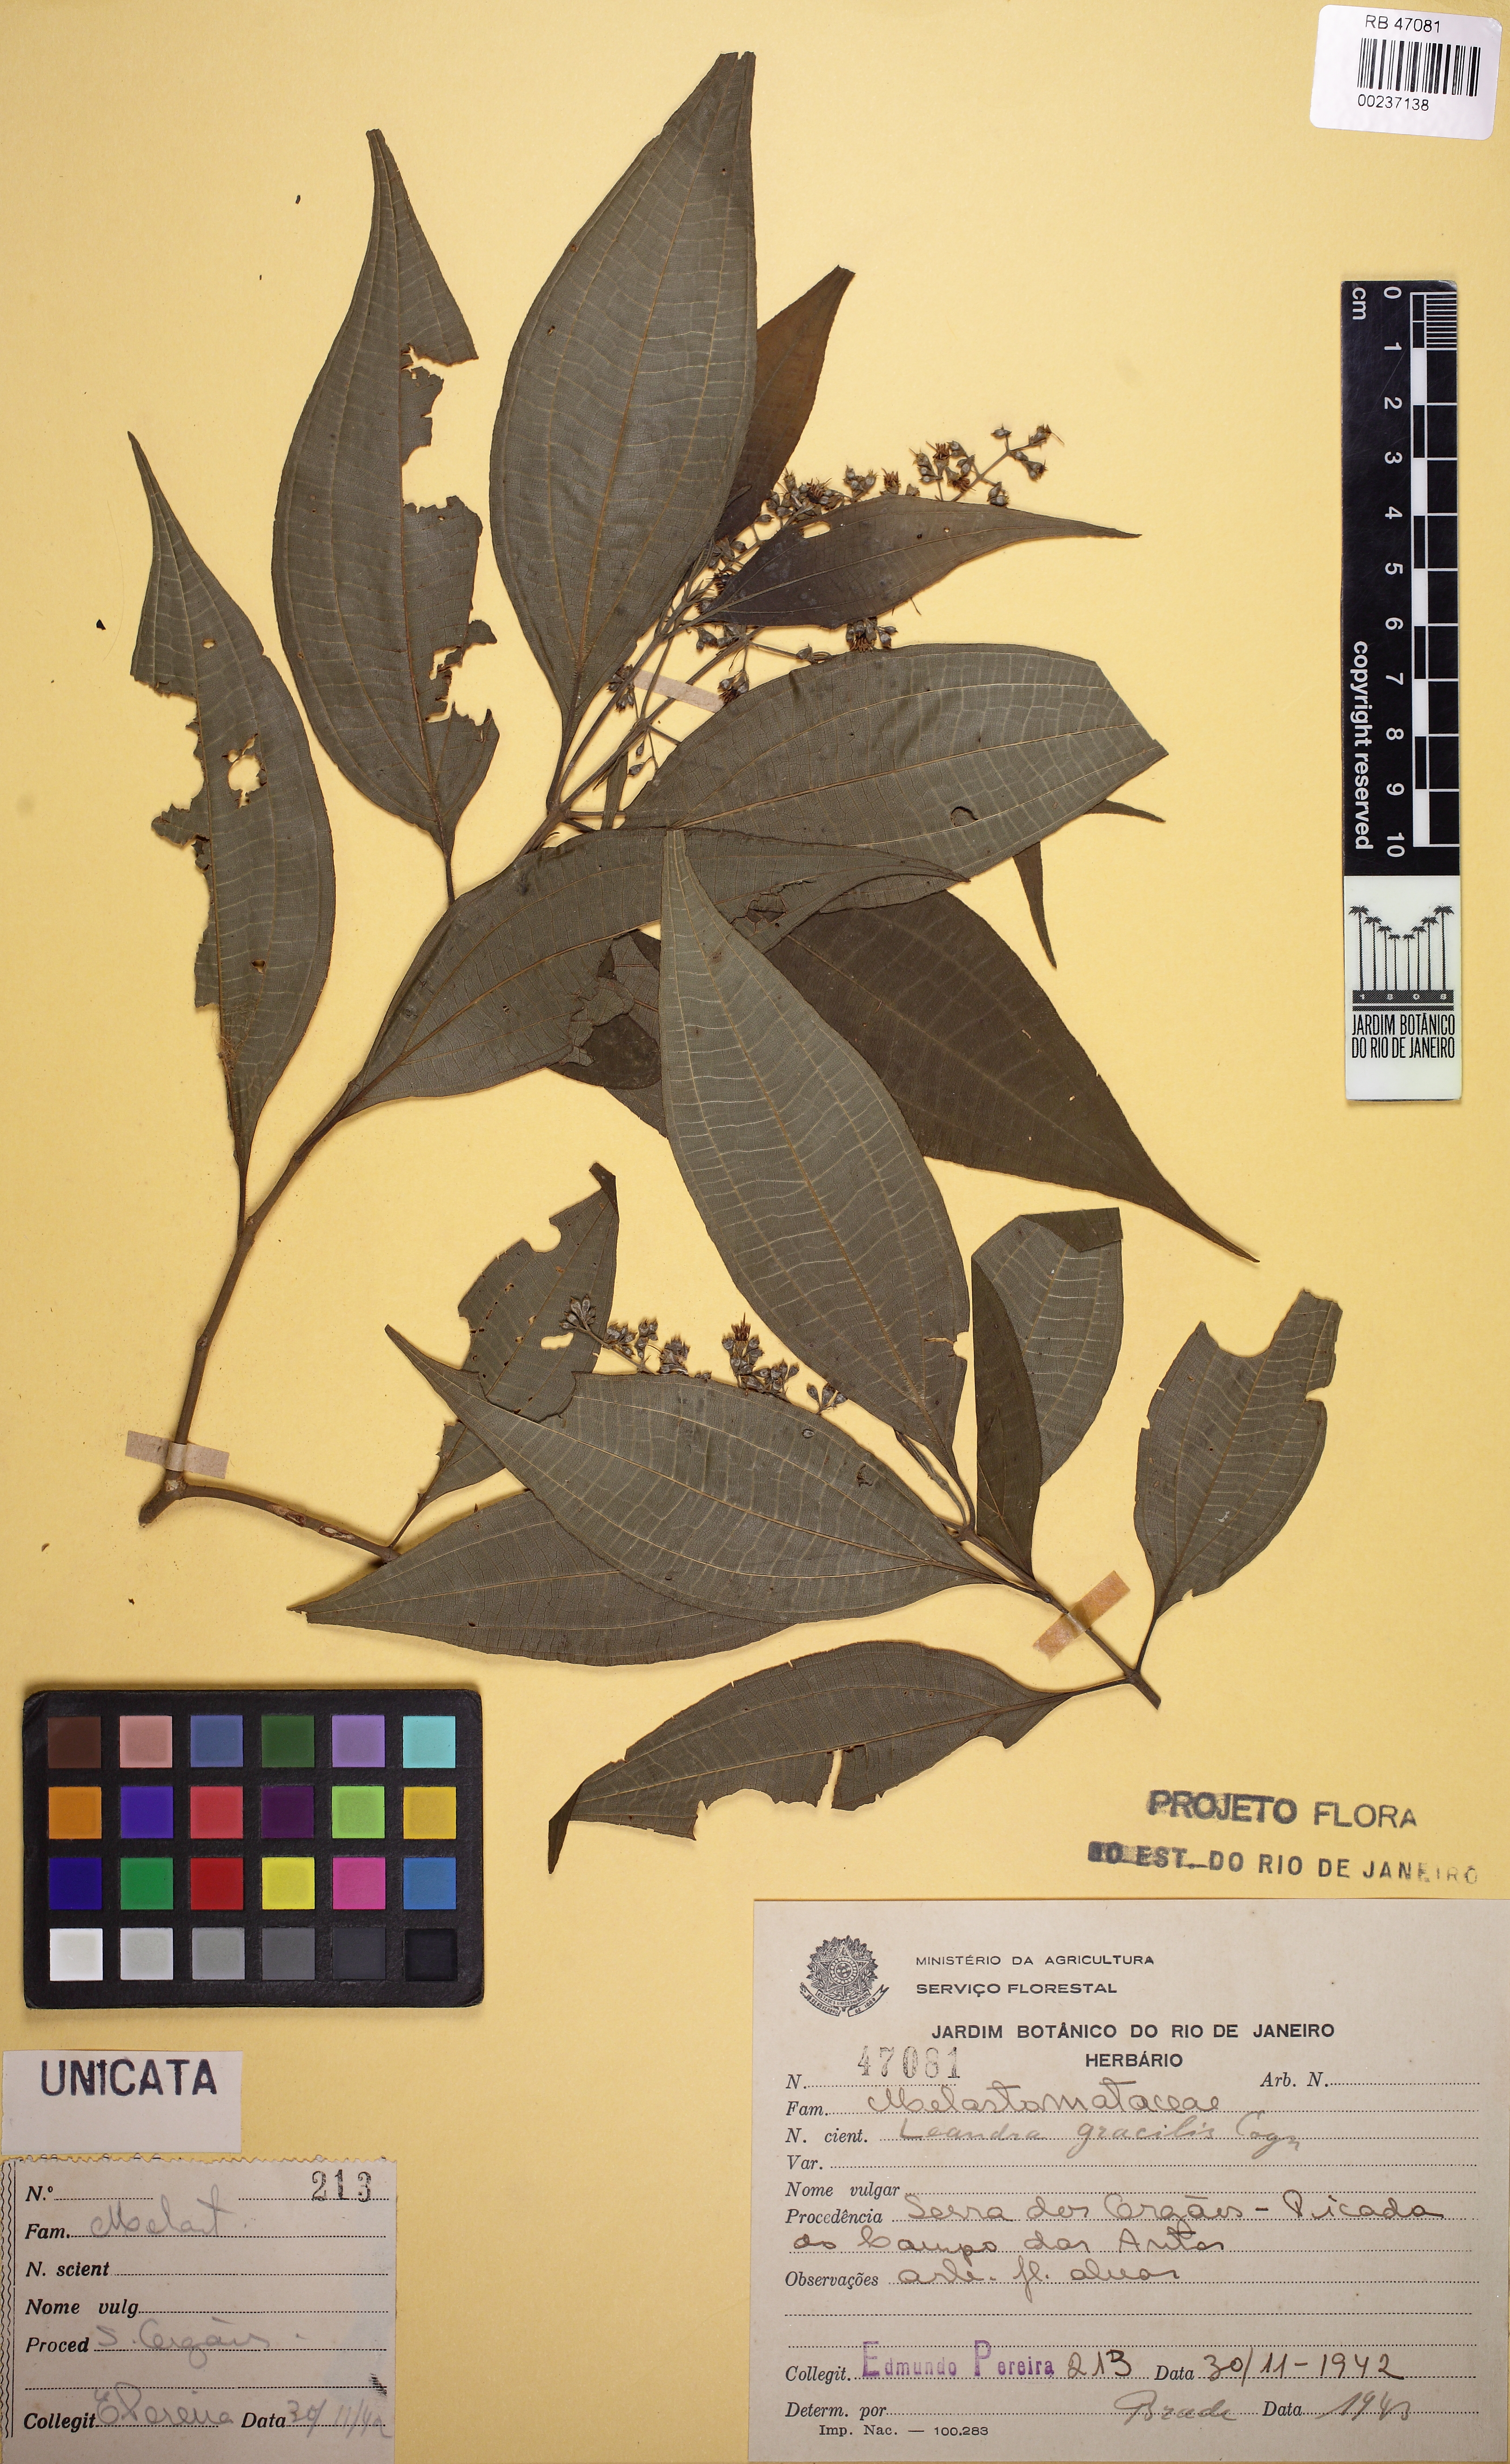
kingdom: Plantae
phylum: Tracheophyta
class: Magnoliopsida
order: Myrtales
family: Melastomataceae
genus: Miconia
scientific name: Miconia leagracilis
